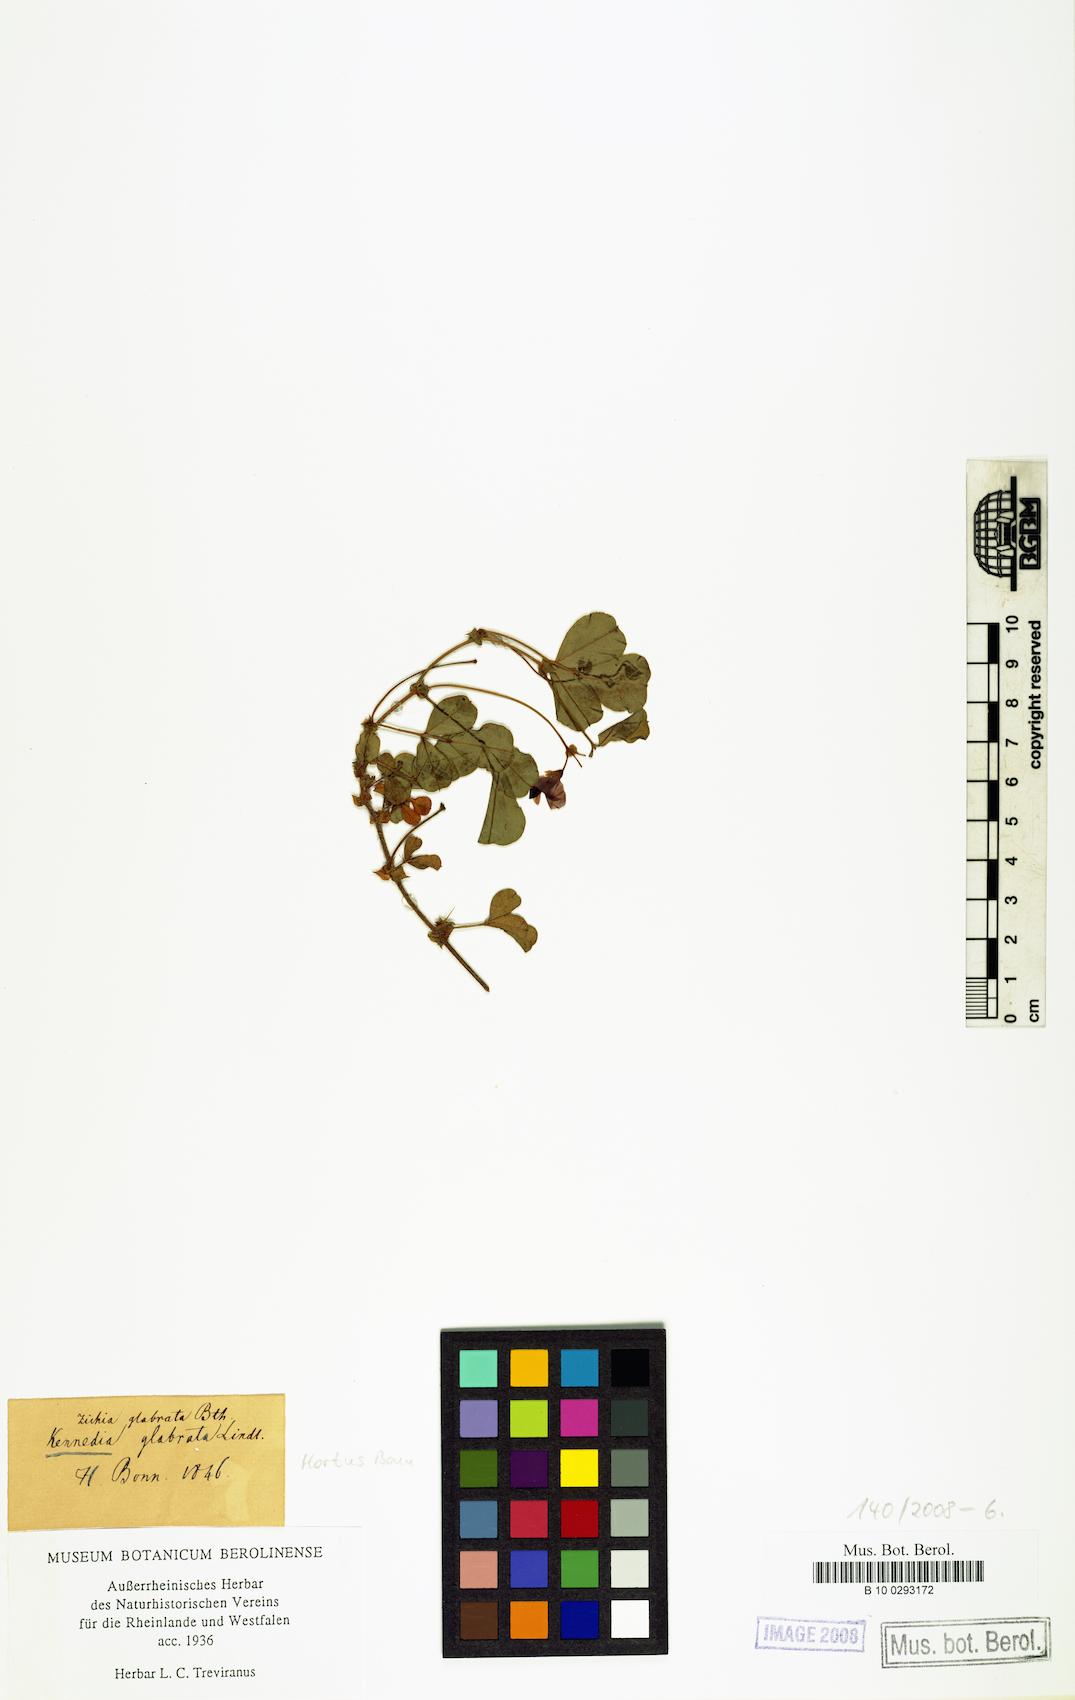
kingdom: Plantae
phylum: Tracheophyta
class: Magnoliopsida
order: Fabales
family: Fabaceae
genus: Kennedia
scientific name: Kennedia glabrata
